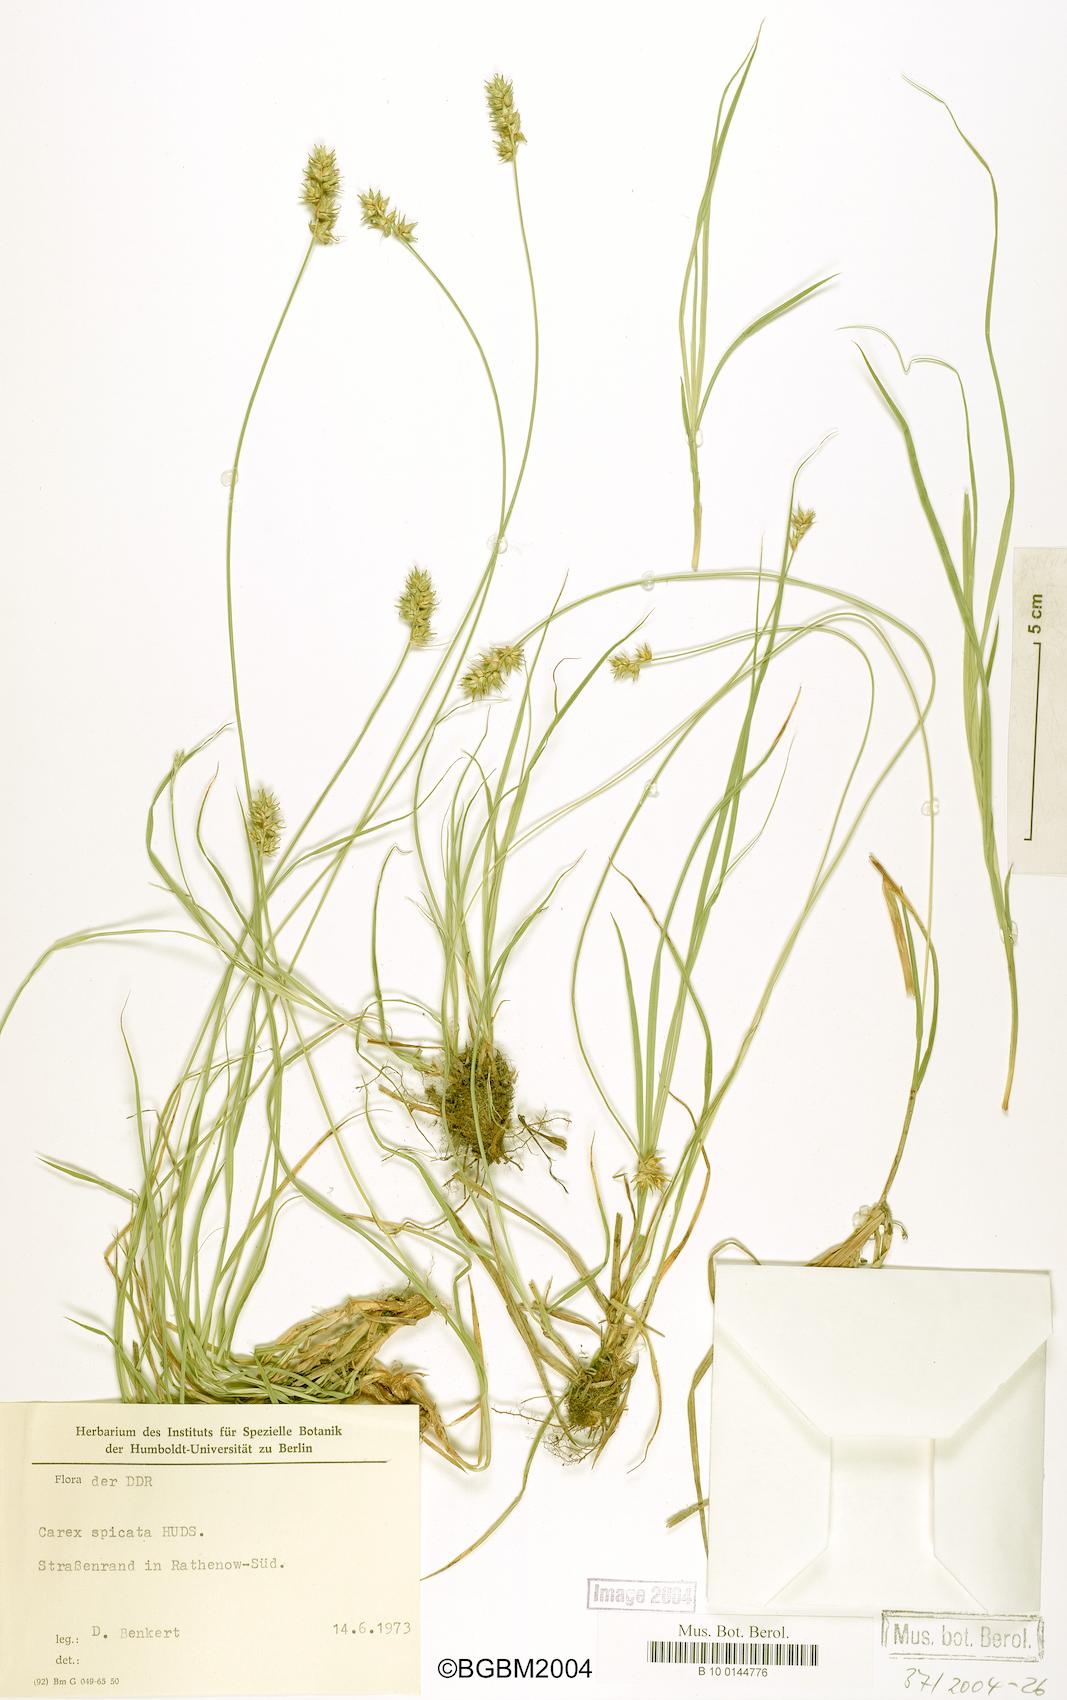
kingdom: Plantae
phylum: Tracheophyta
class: Liliopsida
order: Poales
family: Cyperaceae
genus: Carex
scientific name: Carex spicata
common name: Spiked sedge
